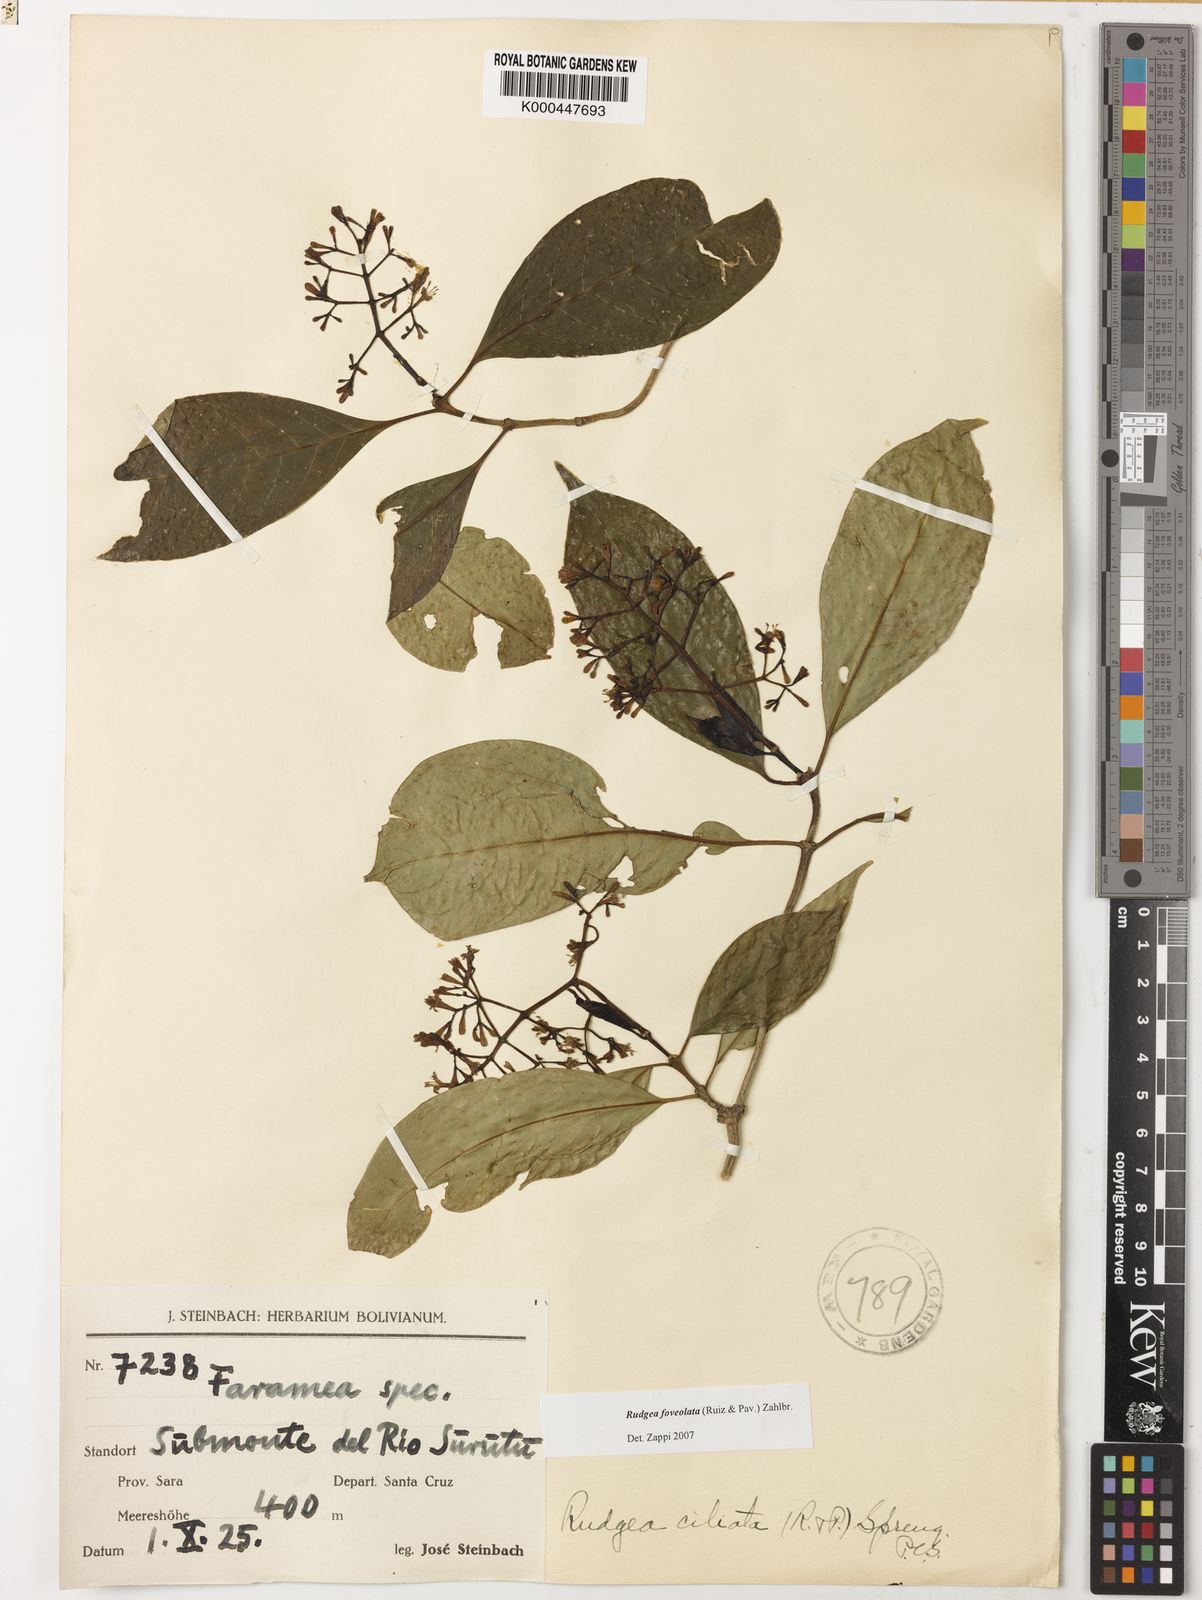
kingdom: Plantae
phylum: Tracheophyta
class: Magnoliopsida
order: Gentianales
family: Rubiaceae
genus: Rudgea
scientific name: Rudgea foveolata
